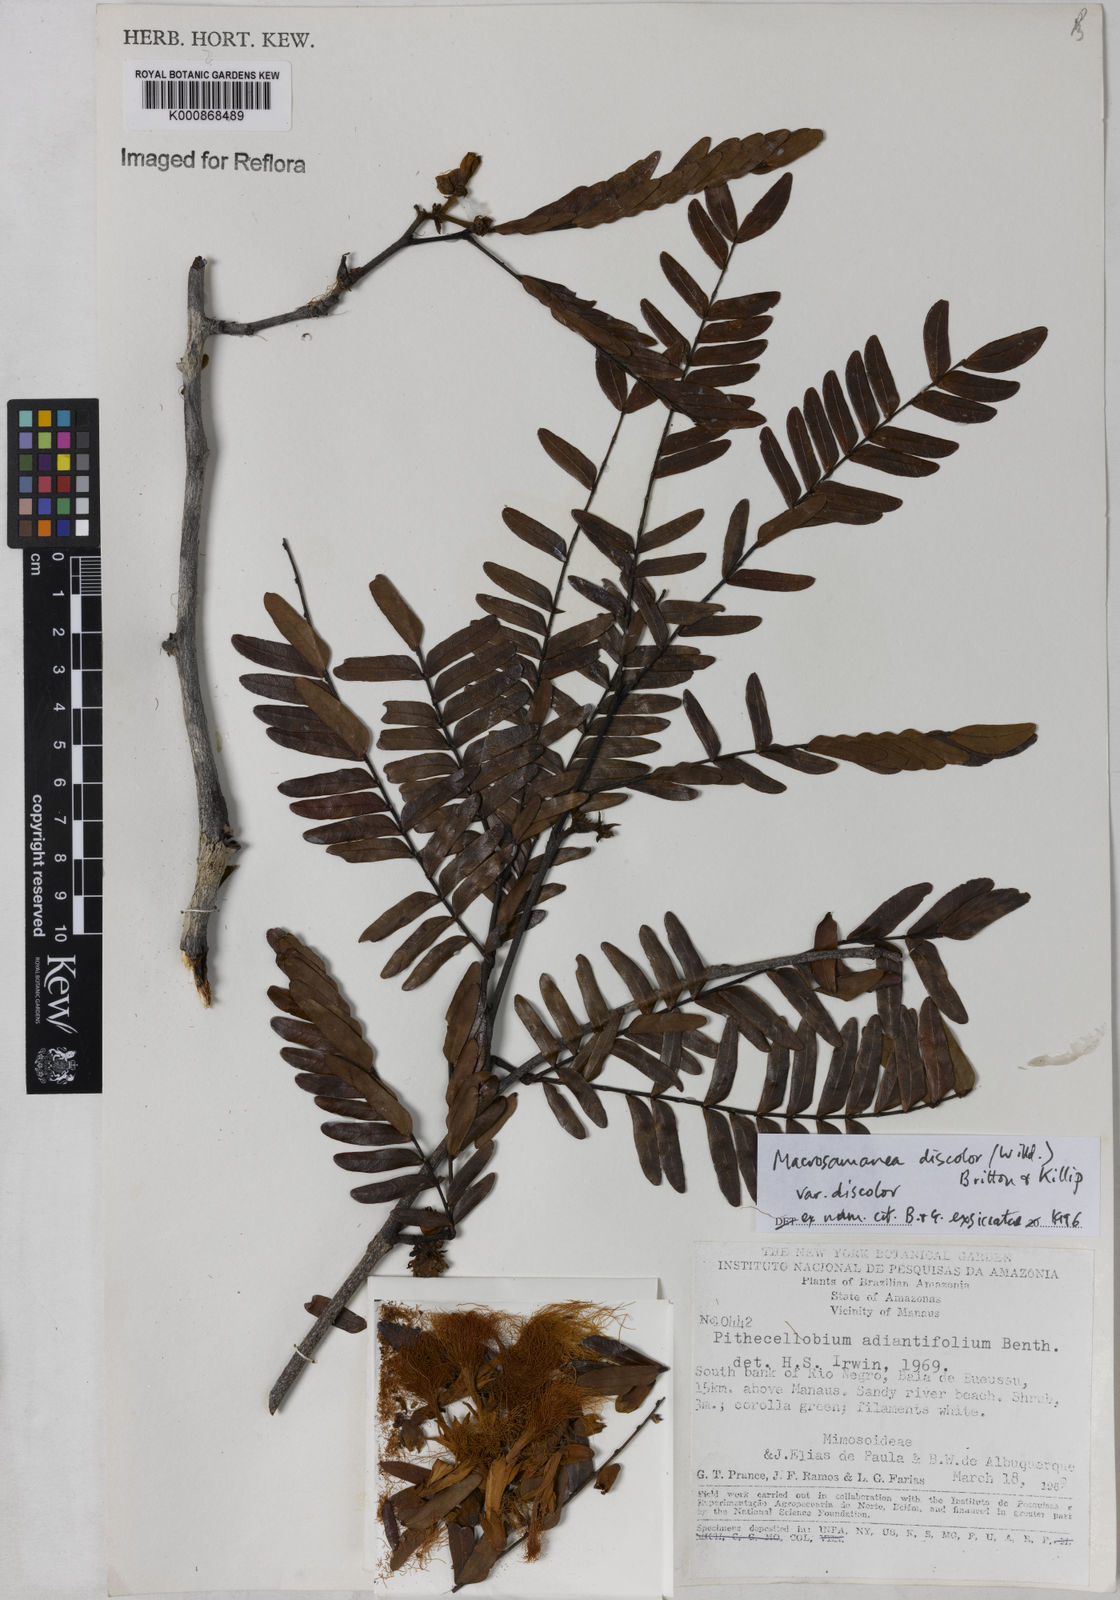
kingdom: Plantae
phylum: Tracheophyta
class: Magnoliopsida
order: Fabales
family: Fabaceae
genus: Macrosamanea
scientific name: Macrosamanea discolor
